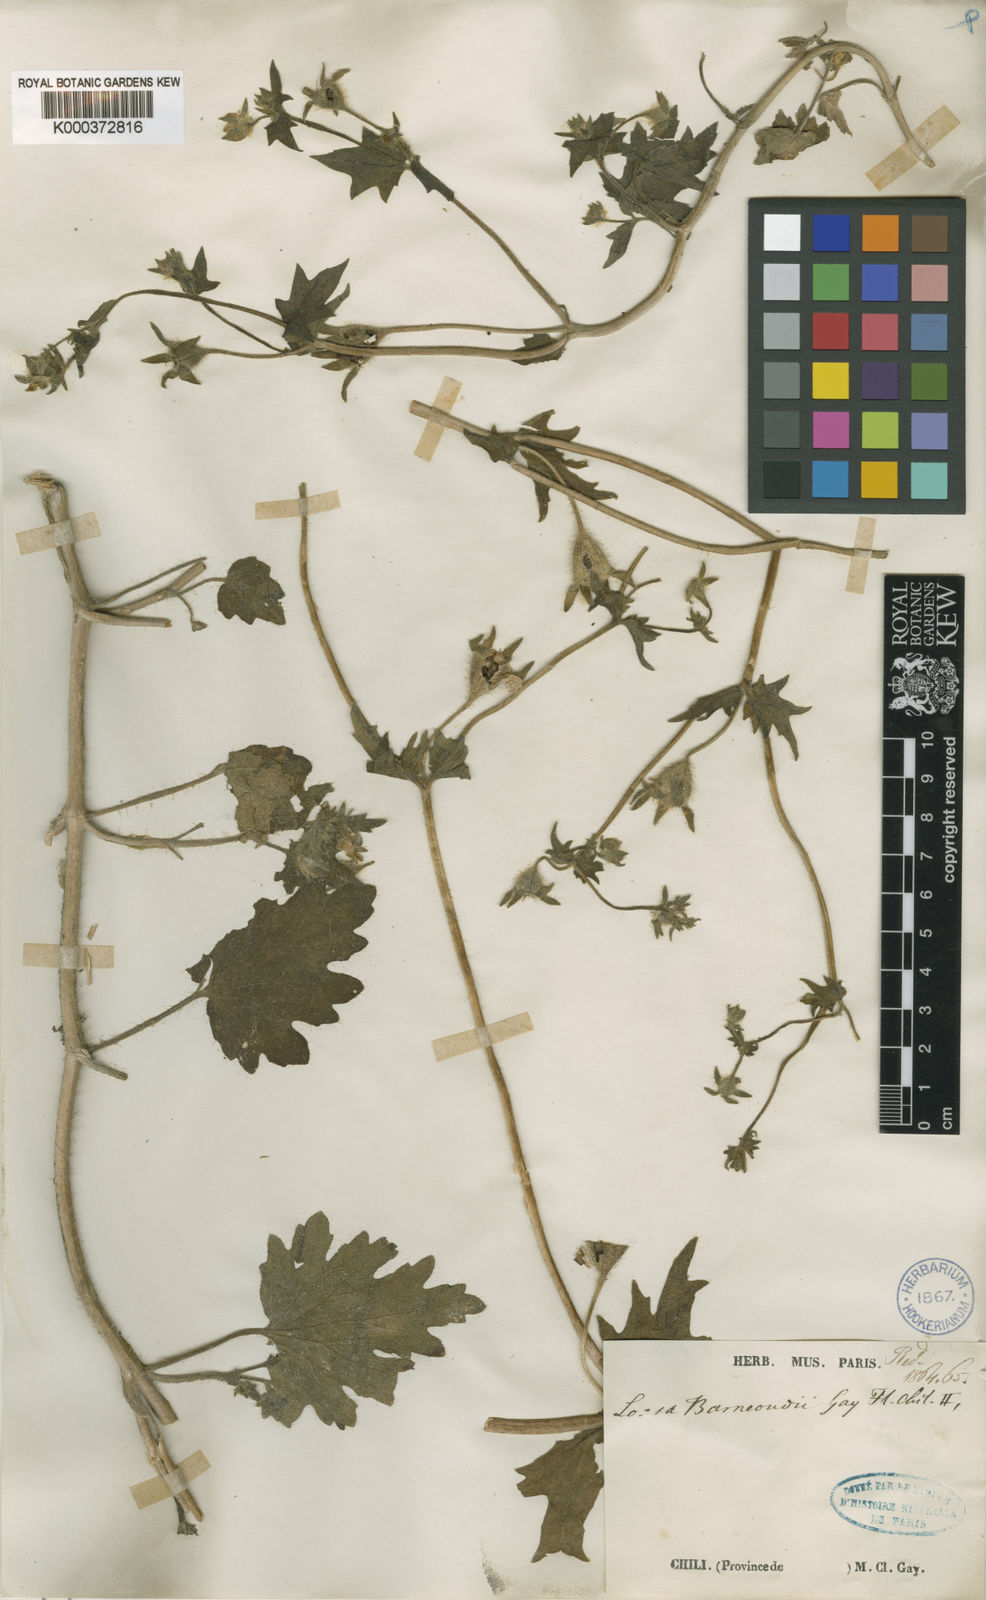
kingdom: Plantae
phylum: Tracheophyta
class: Magnoliopsida
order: Cornales
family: Loasaceae
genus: Loasa
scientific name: Loasa heterophylla
